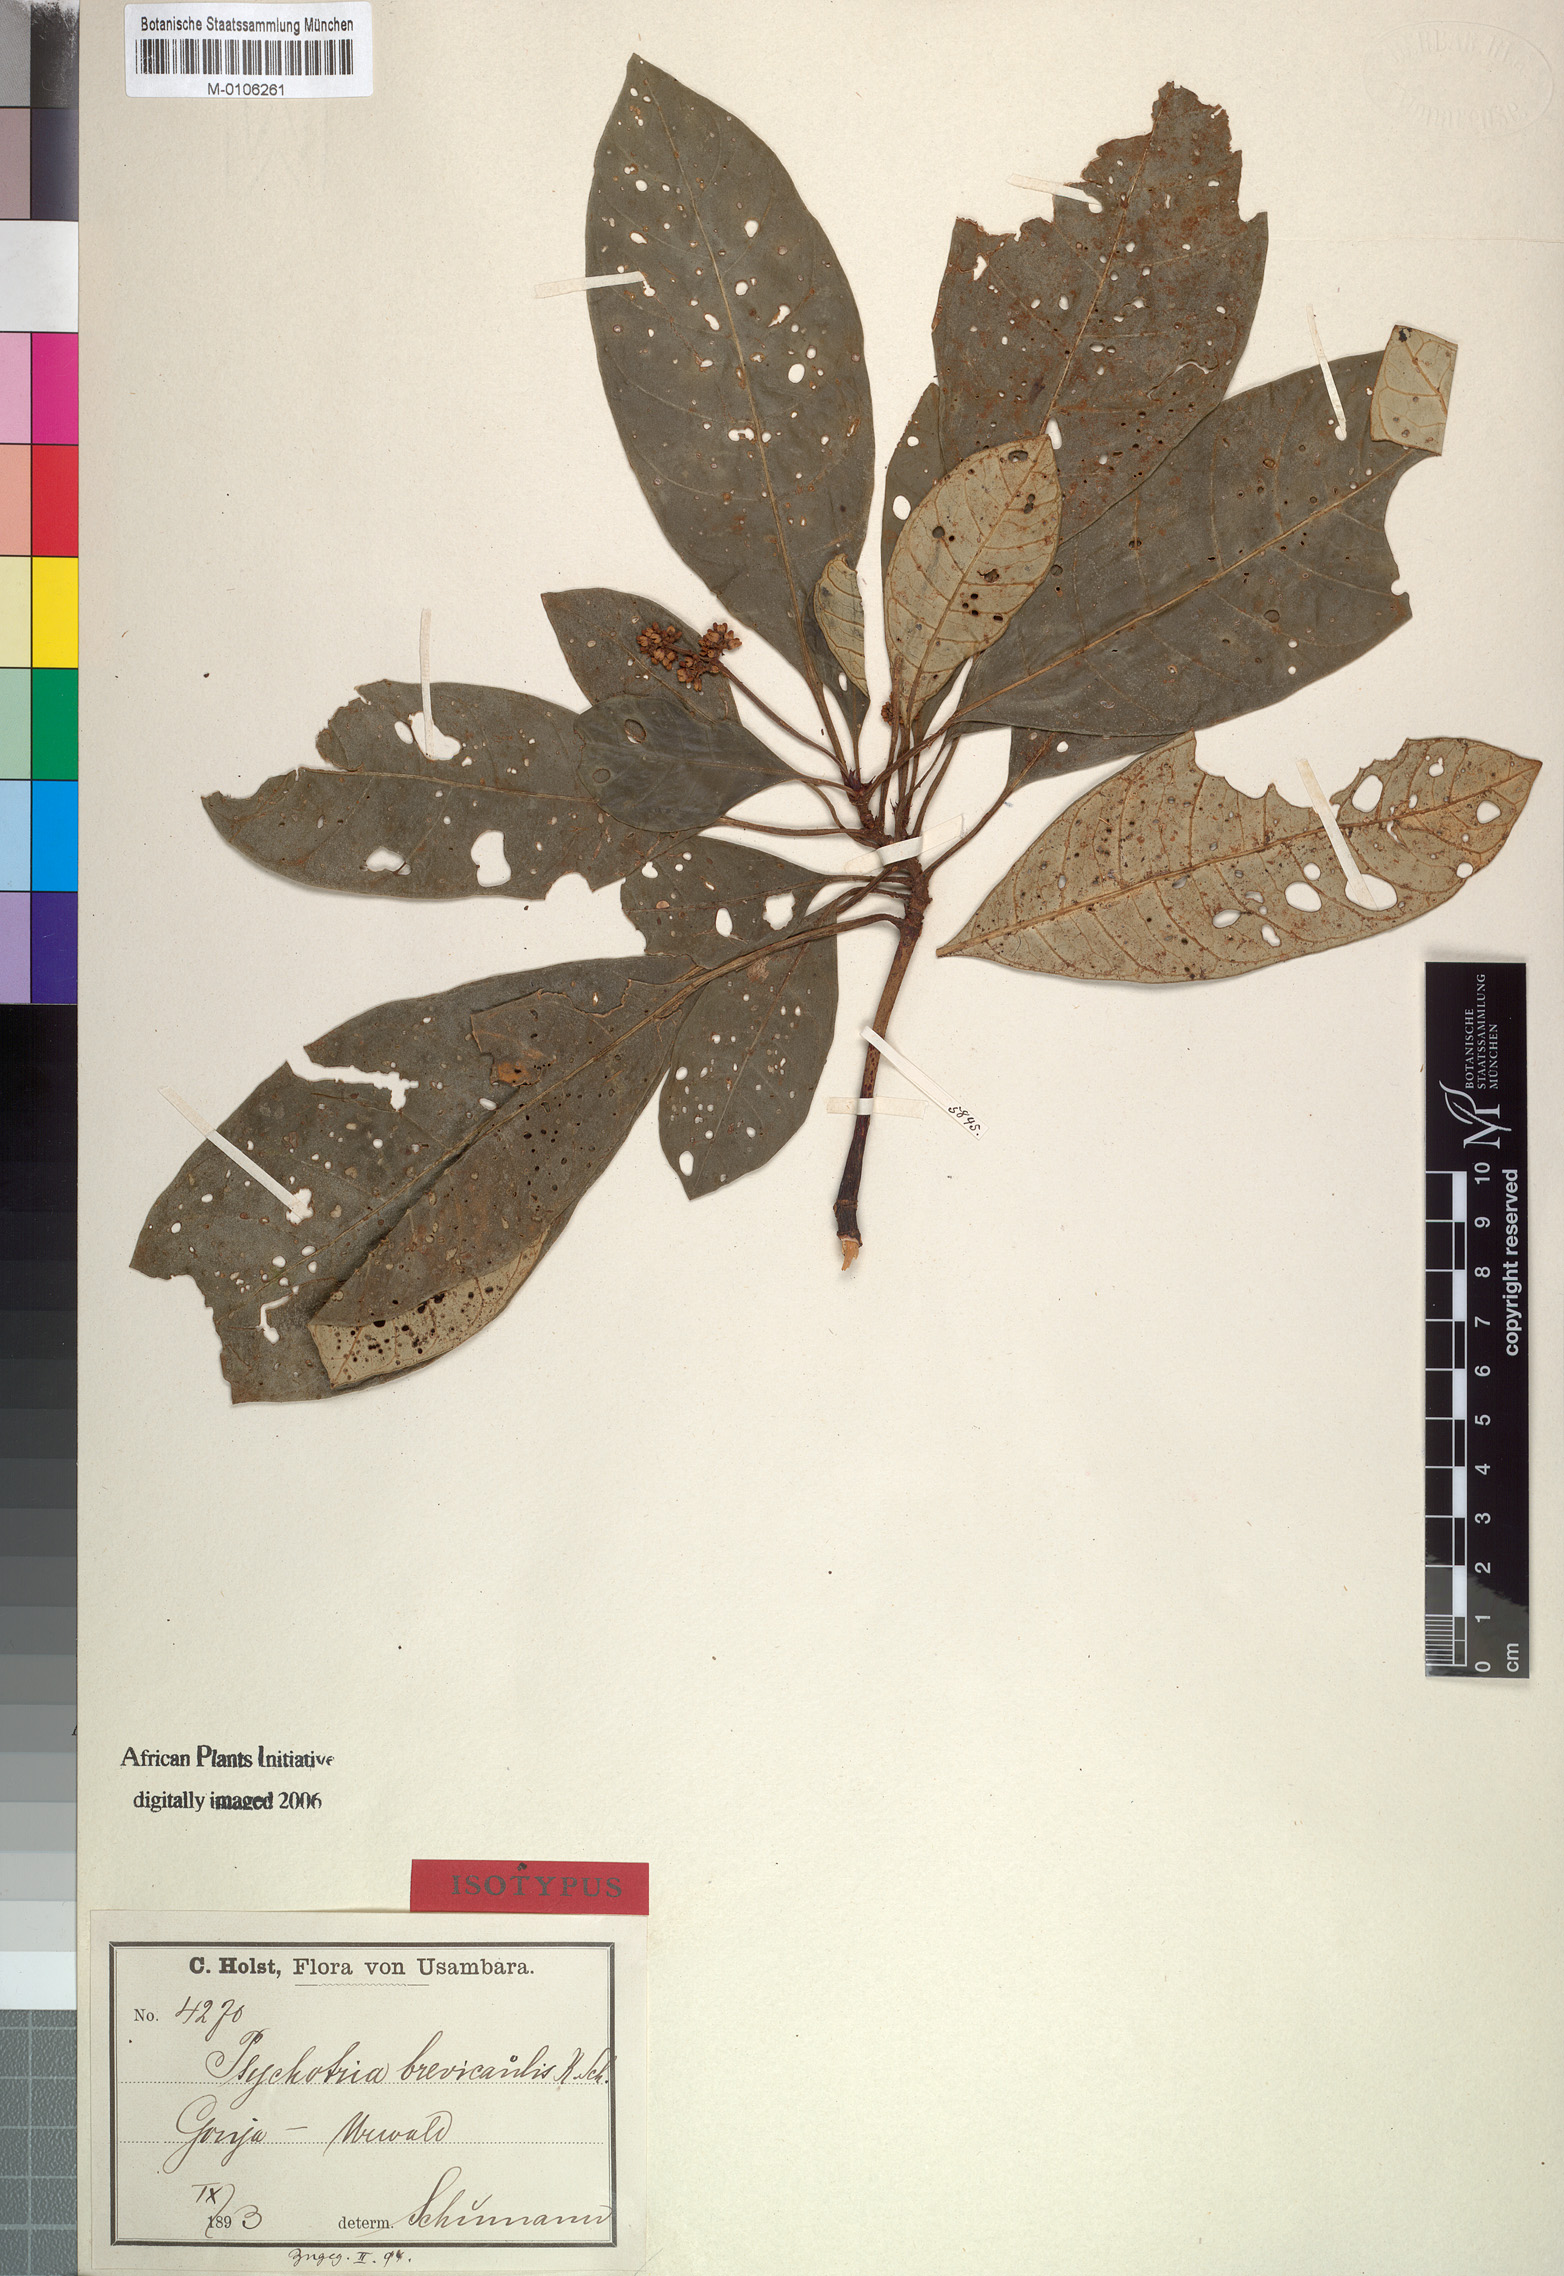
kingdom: Plantae
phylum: Tracheophyta
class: Magnoliopsida
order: Gentianales
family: Rubiaceae
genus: Psychotria
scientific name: Psychotria brevicaulis
